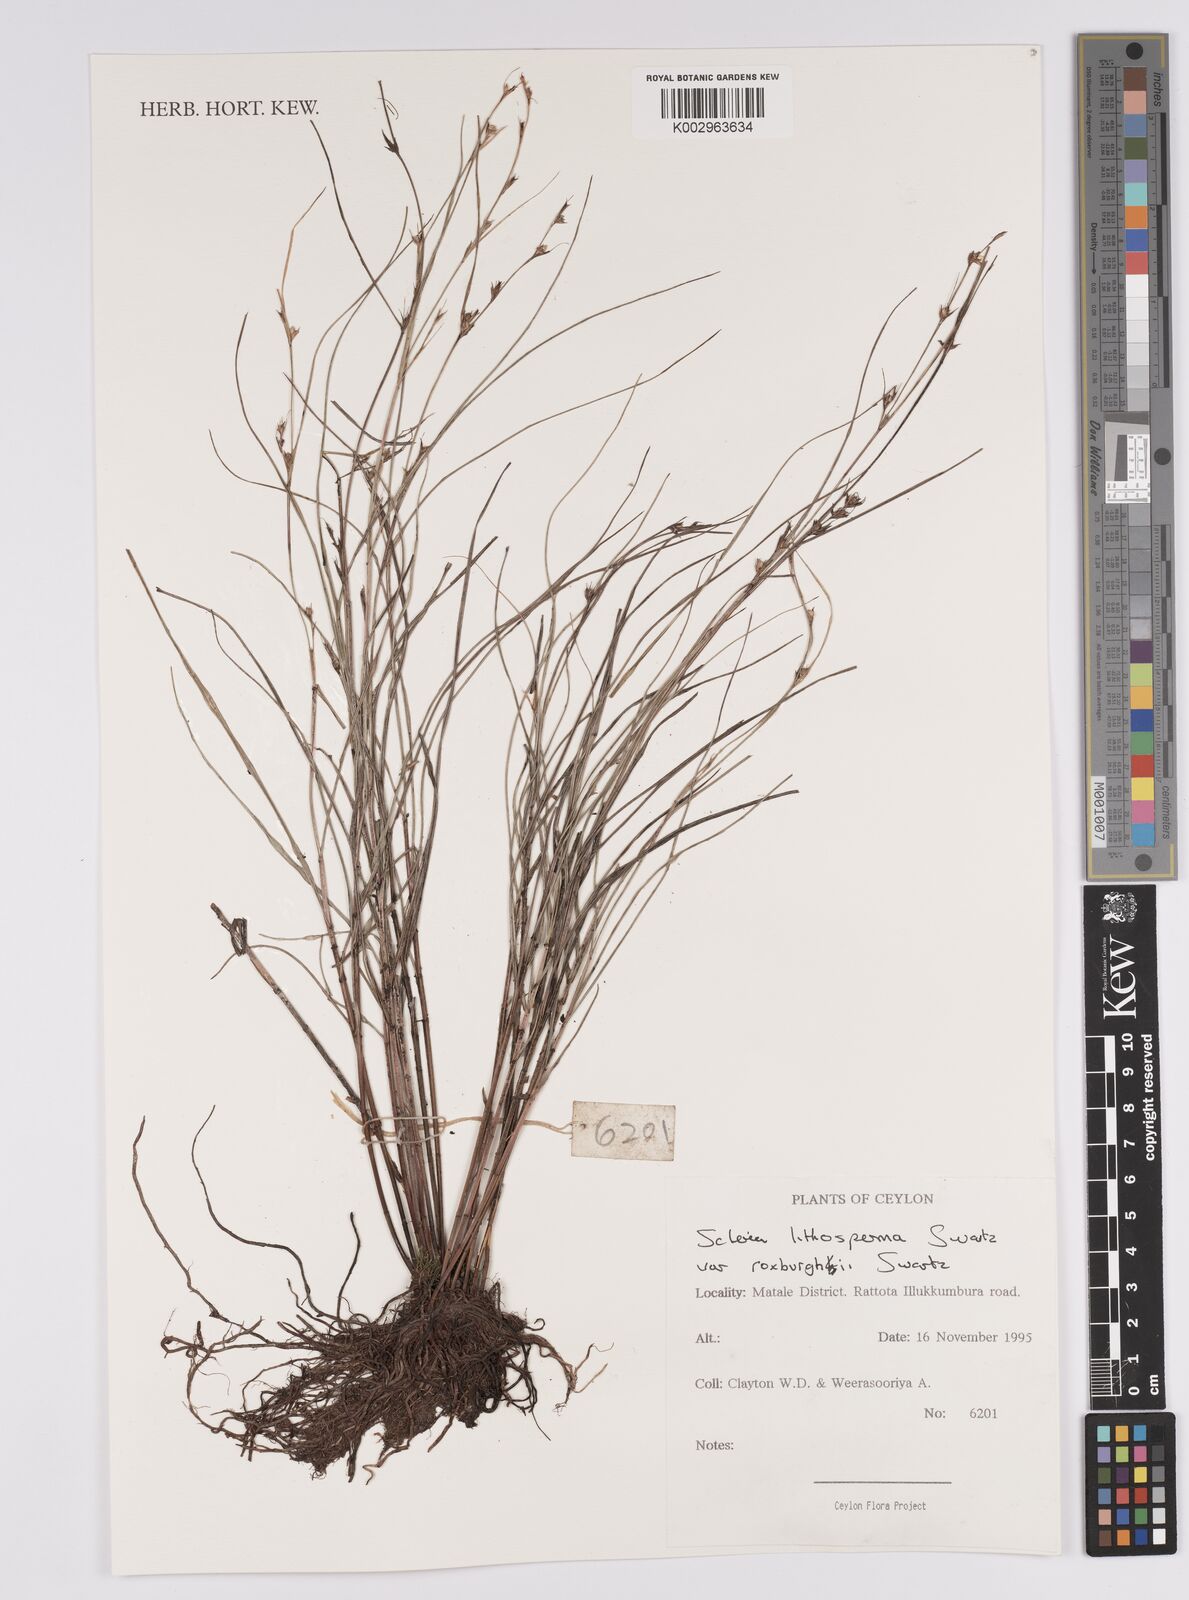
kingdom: Plantae
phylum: Tracheophyta
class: Liliopsida
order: Poales
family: Cyperaceae
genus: Scleria
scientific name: Scleria lithosperma
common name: Florida keys nut-rush
